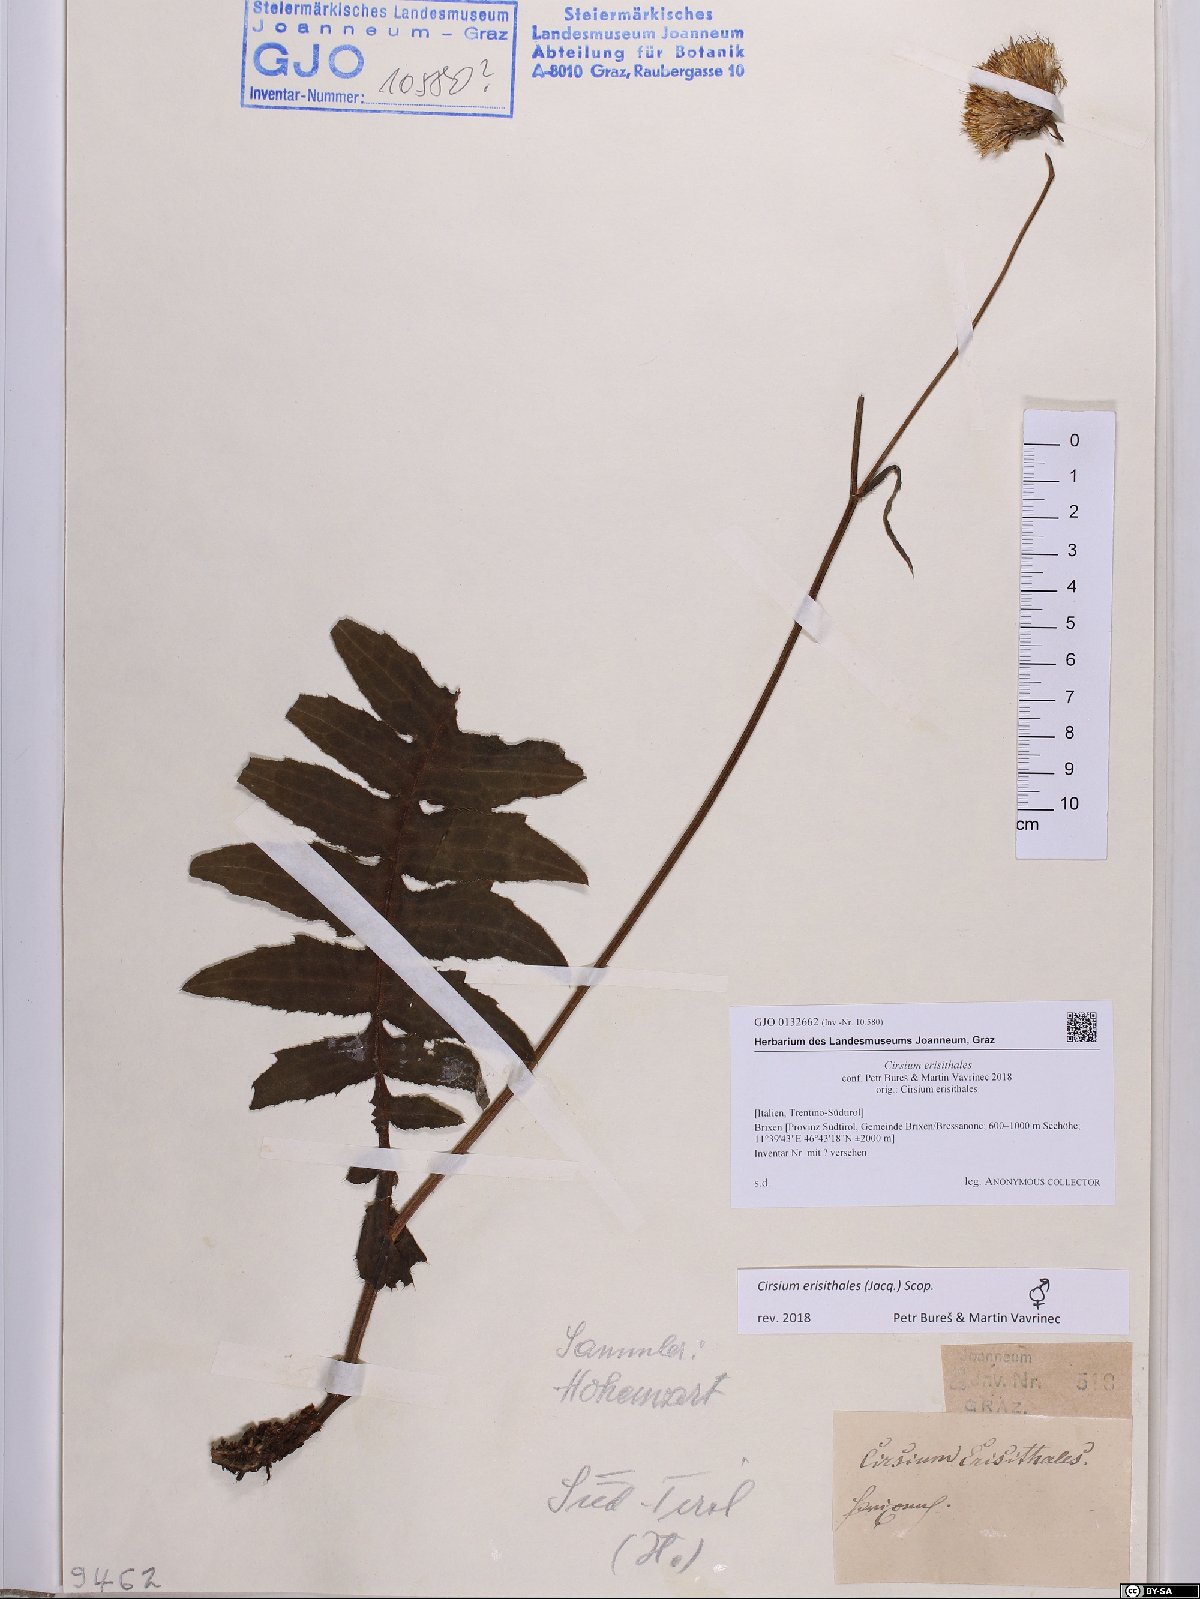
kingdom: Plantae
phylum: Tracheophyta
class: Magnoliopsida
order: Asterales
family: Asteraceae
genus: Cirsium
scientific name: Cirsium erisithales
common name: Yellow thistle
